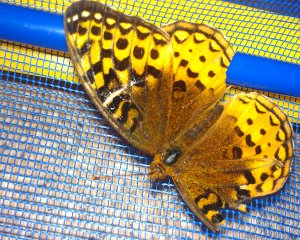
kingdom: Animalia
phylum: Arthropoda
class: Insecta
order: Lepidoptera
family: Nymphalidae
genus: Speyeria
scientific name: Speyeria cybele
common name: Great Spangled Fritillary
